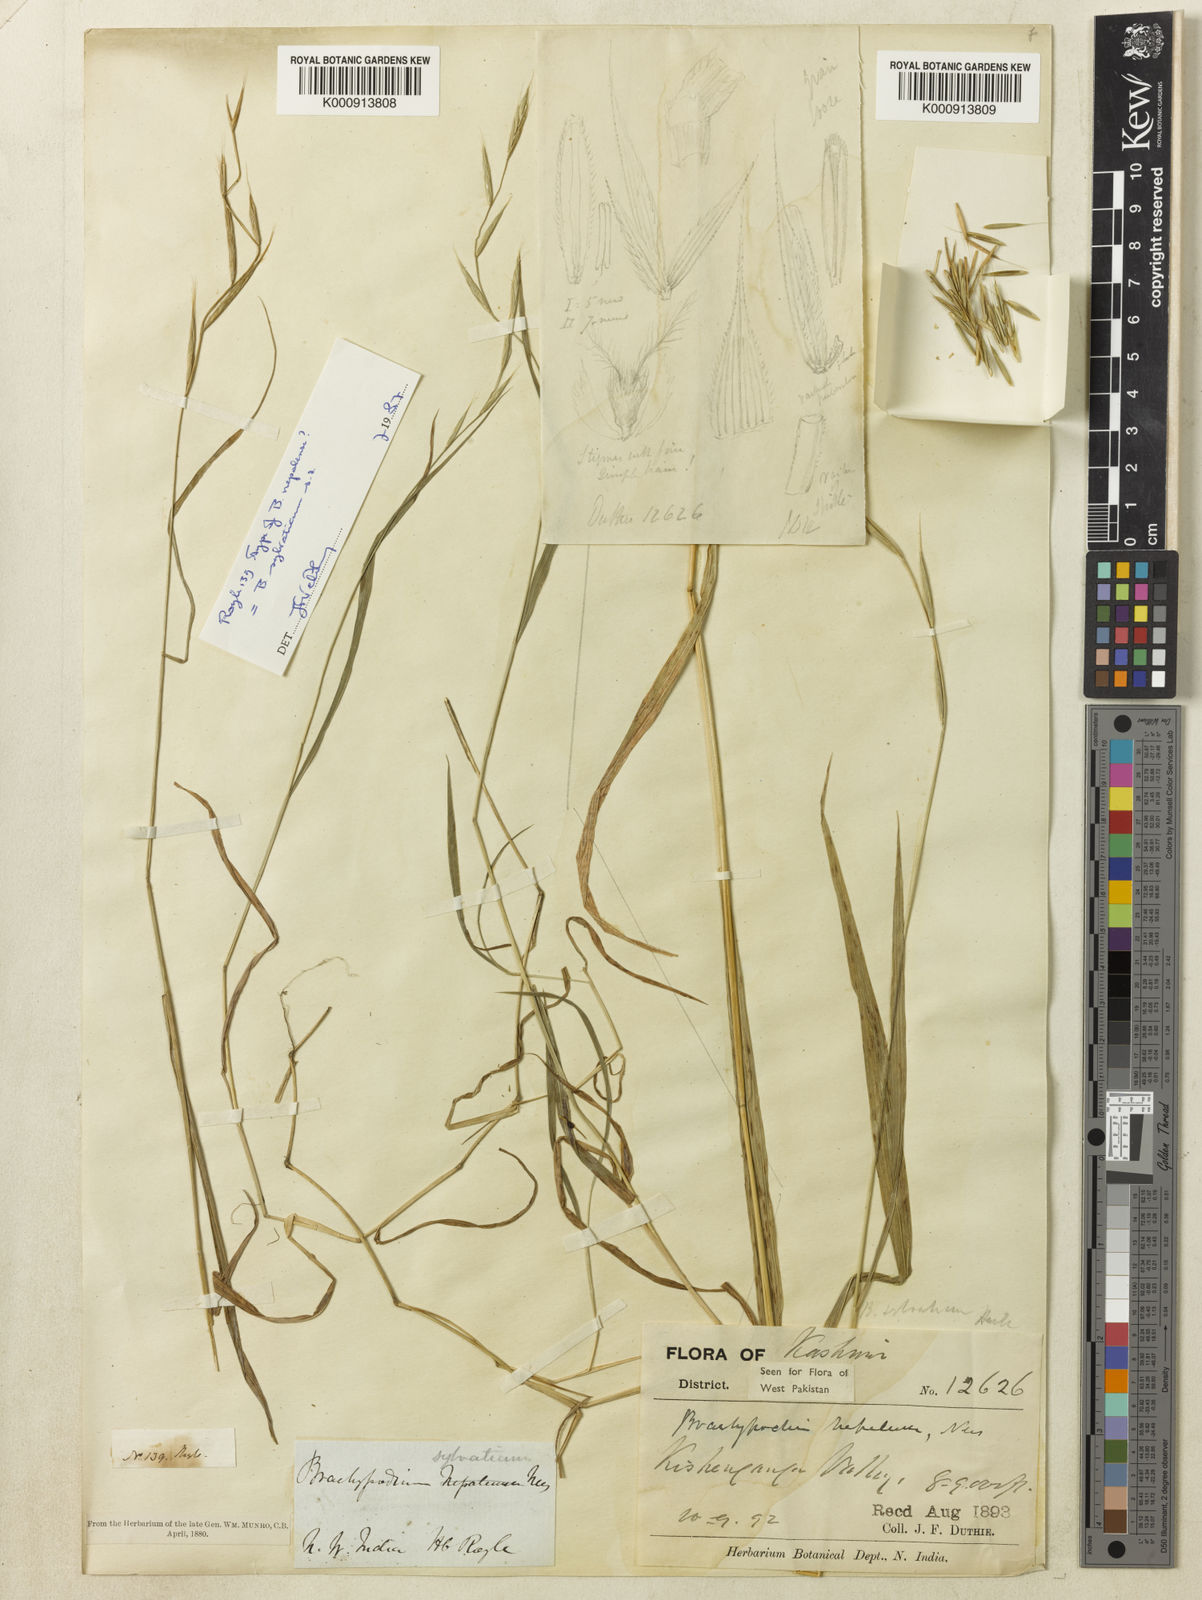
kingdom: Plantae
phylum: Tracheophyta
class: Liliopsida
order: Poales
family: Poaceae
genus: Brachypodium
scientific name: Brachypodium sylvaticum
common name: False-brome
